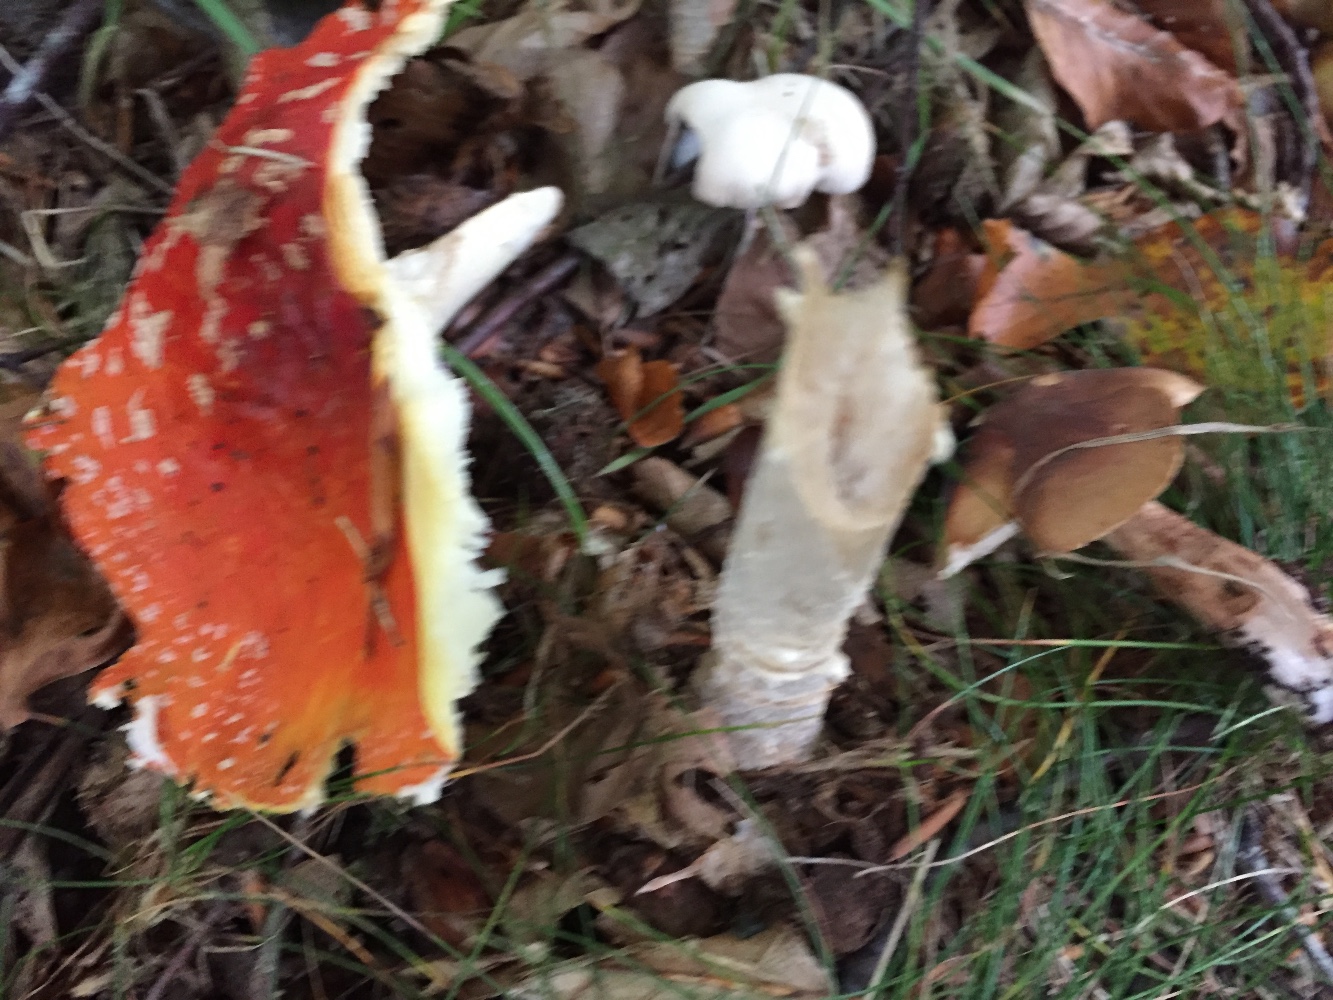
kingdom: Fungi
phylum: Basidiomycota
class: Agaricomycetes
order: Agaricales
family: Amanitaceae
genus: Amanita
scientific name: Amanita muscaria
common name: rød fluesvamp
